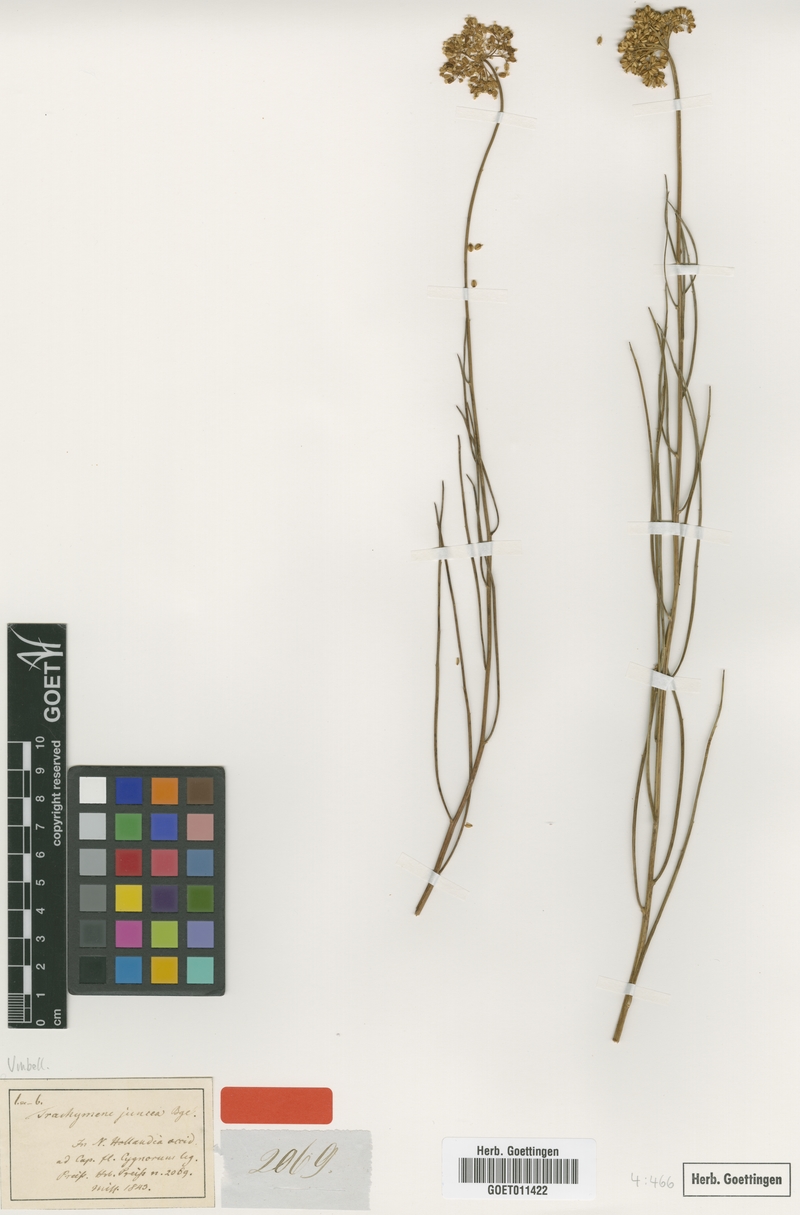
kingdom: Plantae
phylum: Tracheophyta
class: Magnoliopsida
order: Apiales
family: Apiaceae
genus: Platysace
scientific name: Platysace juncea
